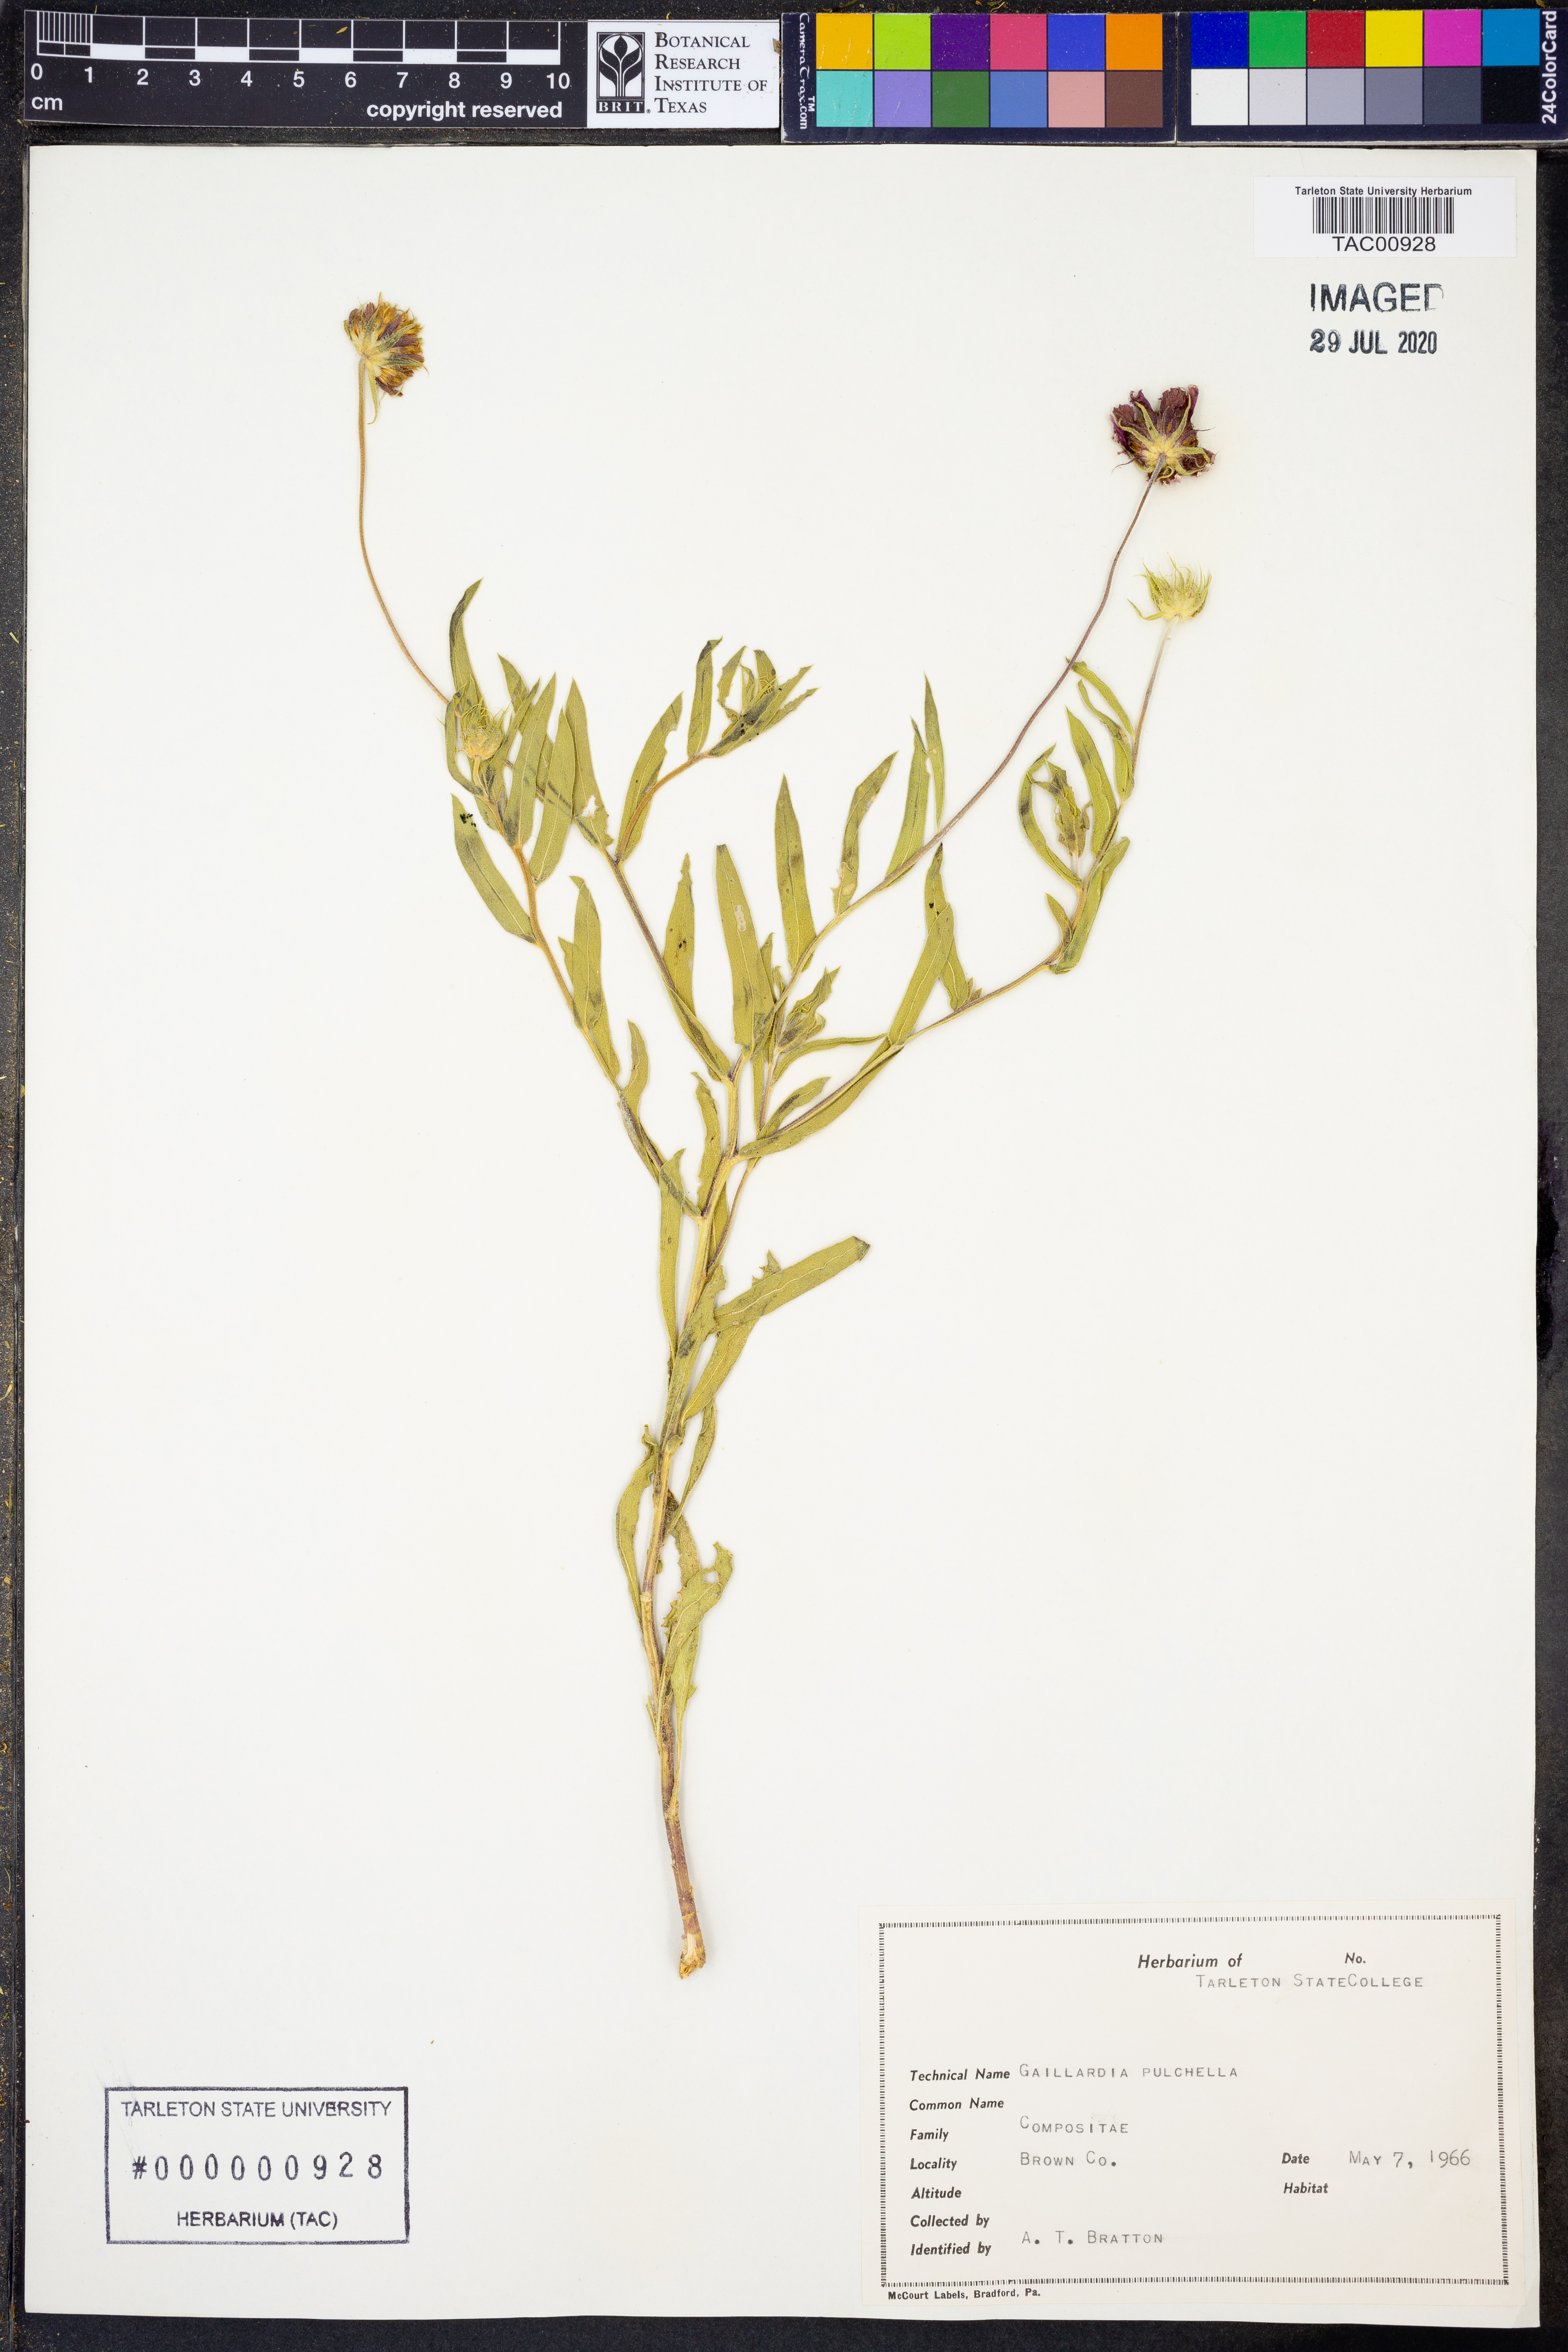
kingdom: Plantae
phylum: Tracheophyta
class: Magnoliopsida
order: Asterales
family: Asteraceae
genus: Gaillardia
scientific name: Gaillardia pulchella
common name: Firewheel
